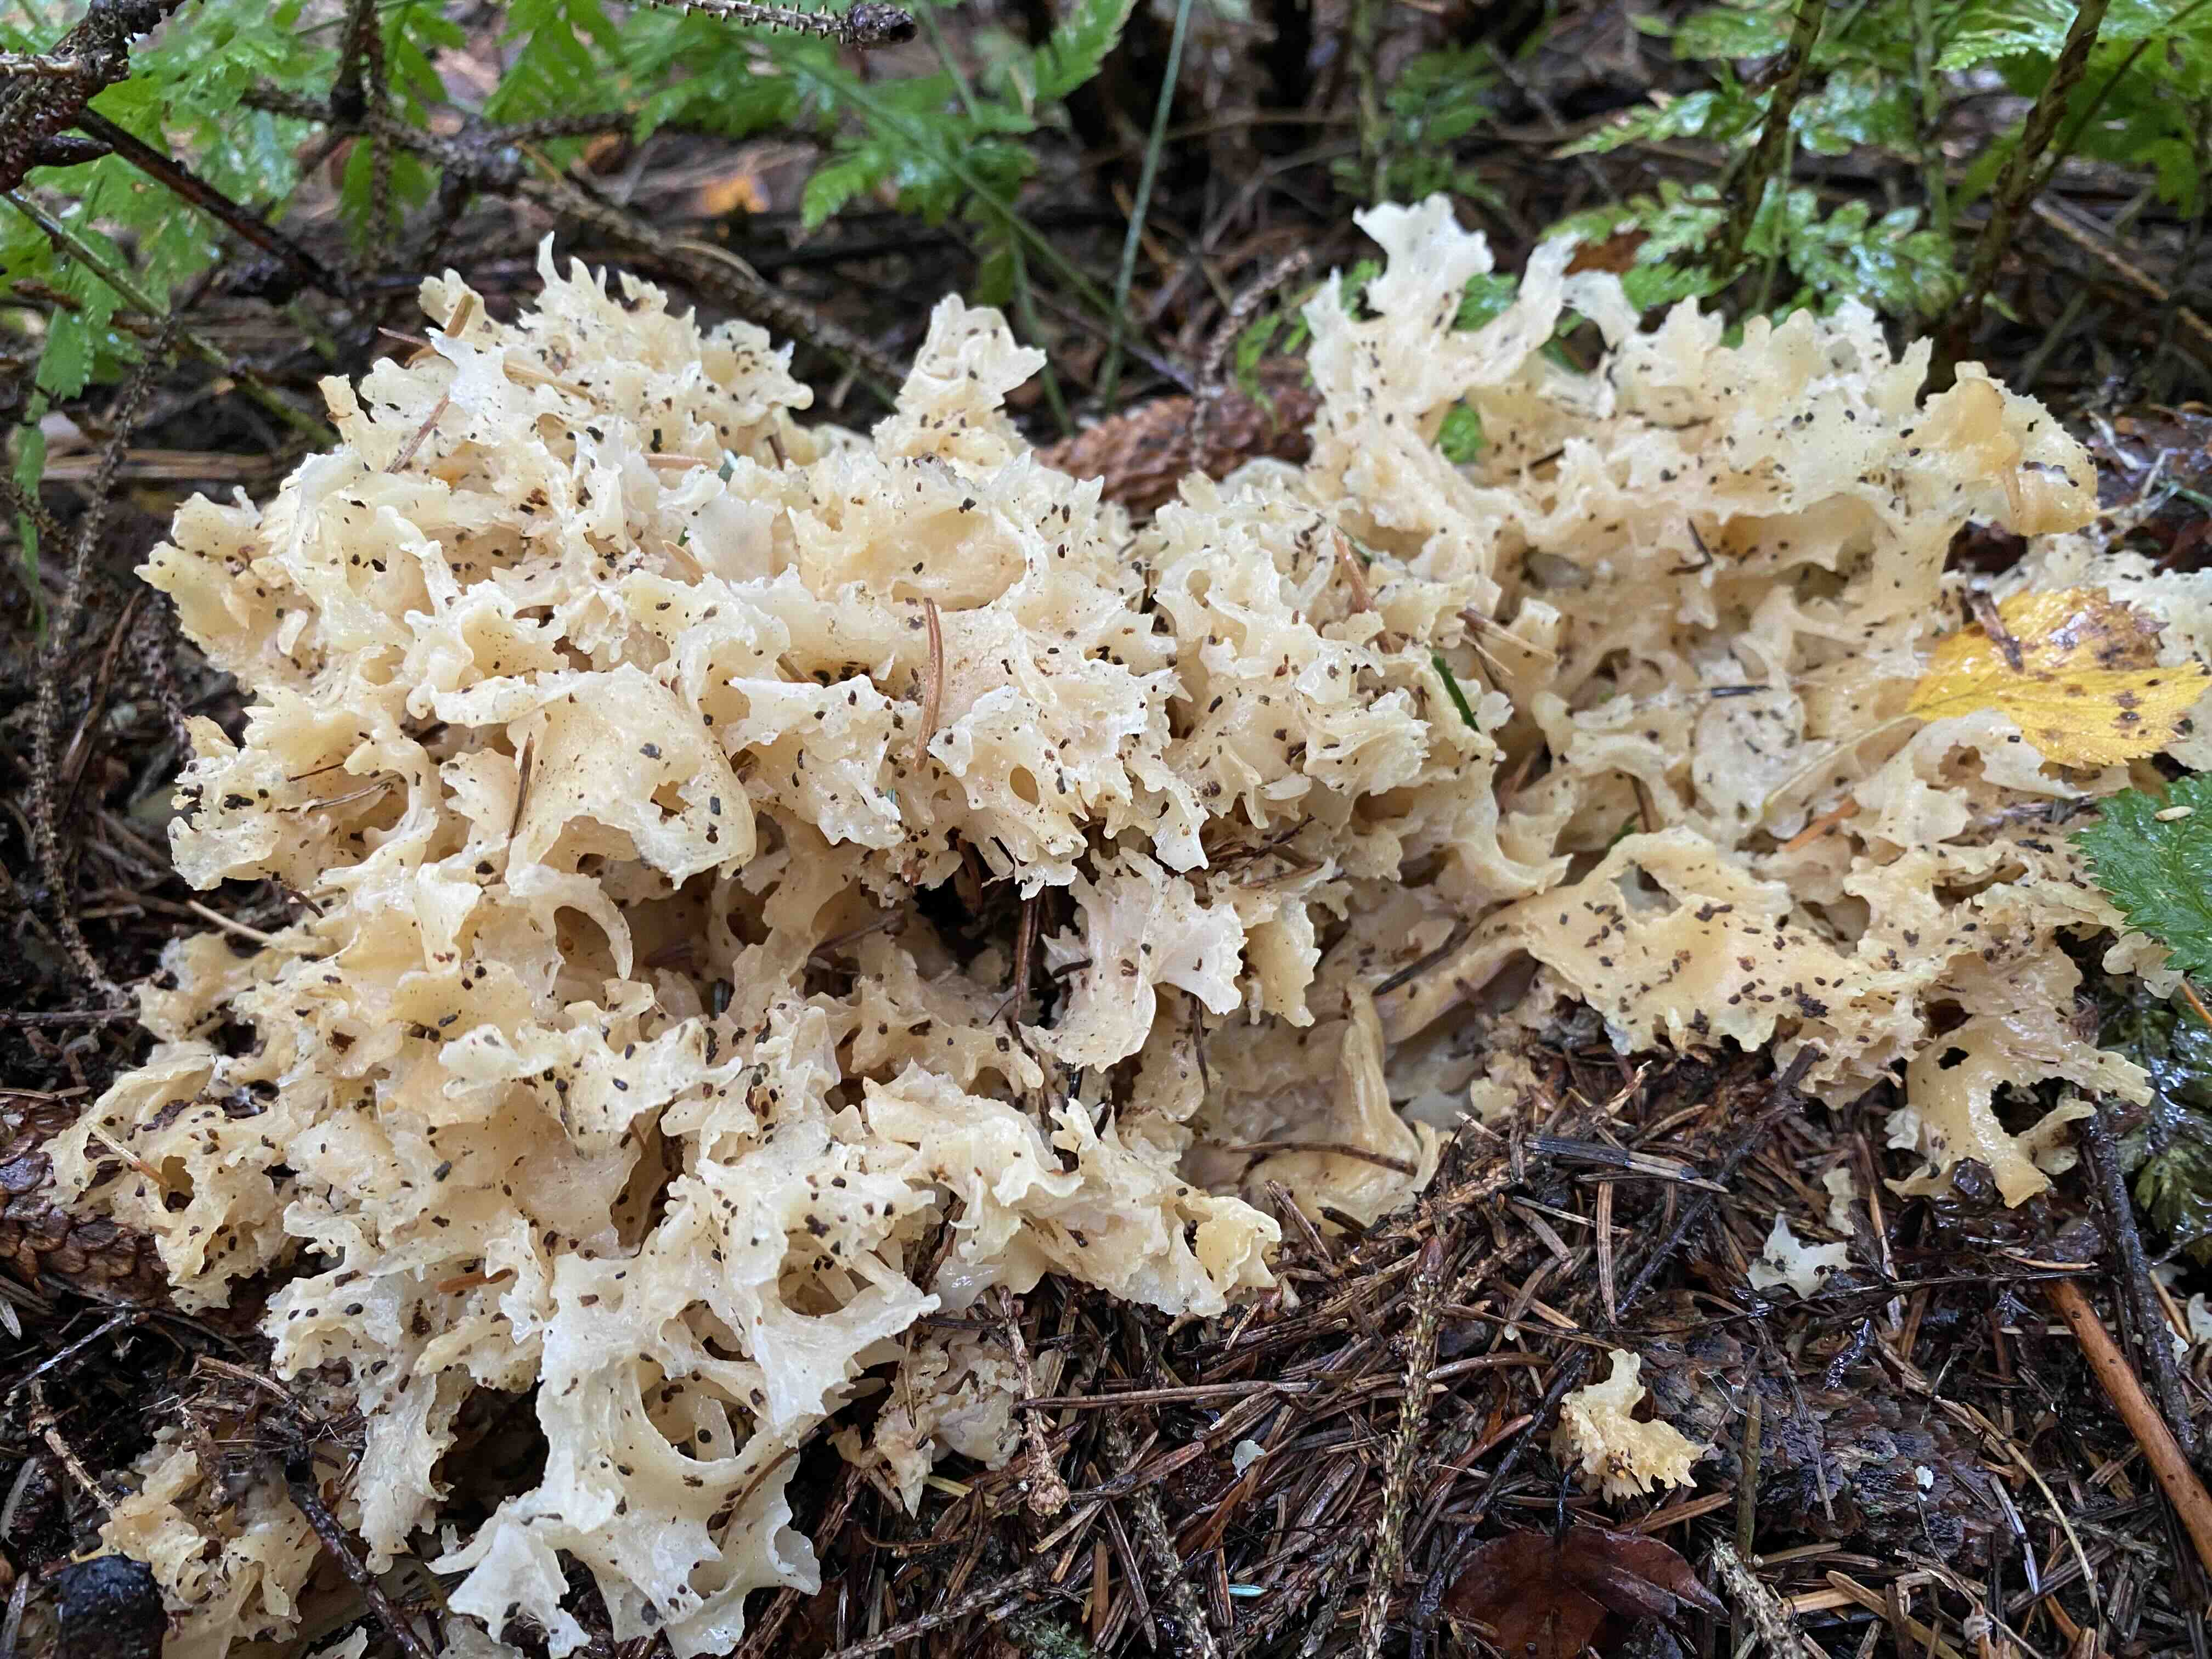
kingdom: Fungi
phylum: Basidiomycota
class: Agaricomycetes
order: Polyporales
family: Sparassidaceae
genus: Sparassis
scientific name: Sparassis crispa
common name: kruset blomkålssvamp
